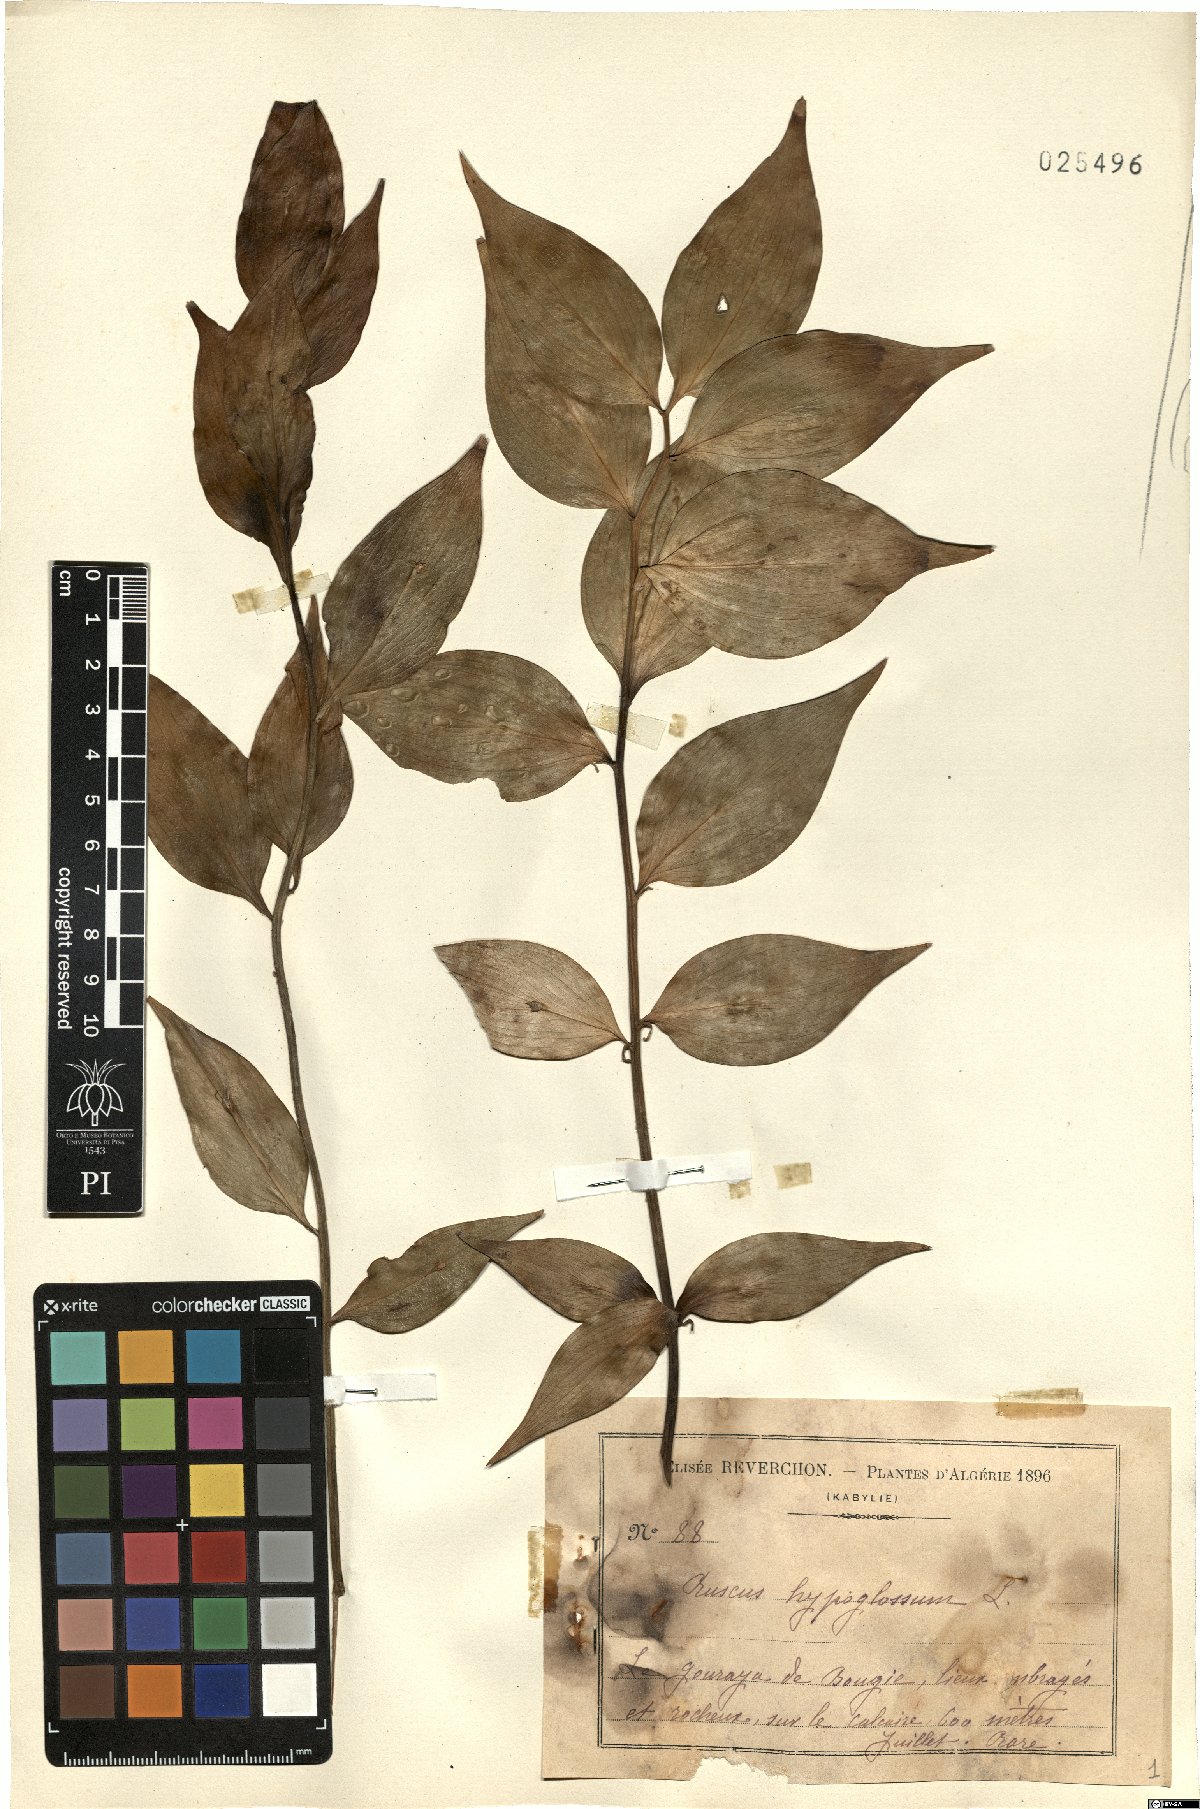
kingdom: Plantae
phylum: Tracheophyta
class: Liliopsida
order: Asparagales
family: Asparagaceae
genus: Ruscus
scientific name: Ruscus hypoglossum
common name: Spineless butcher's-broom
